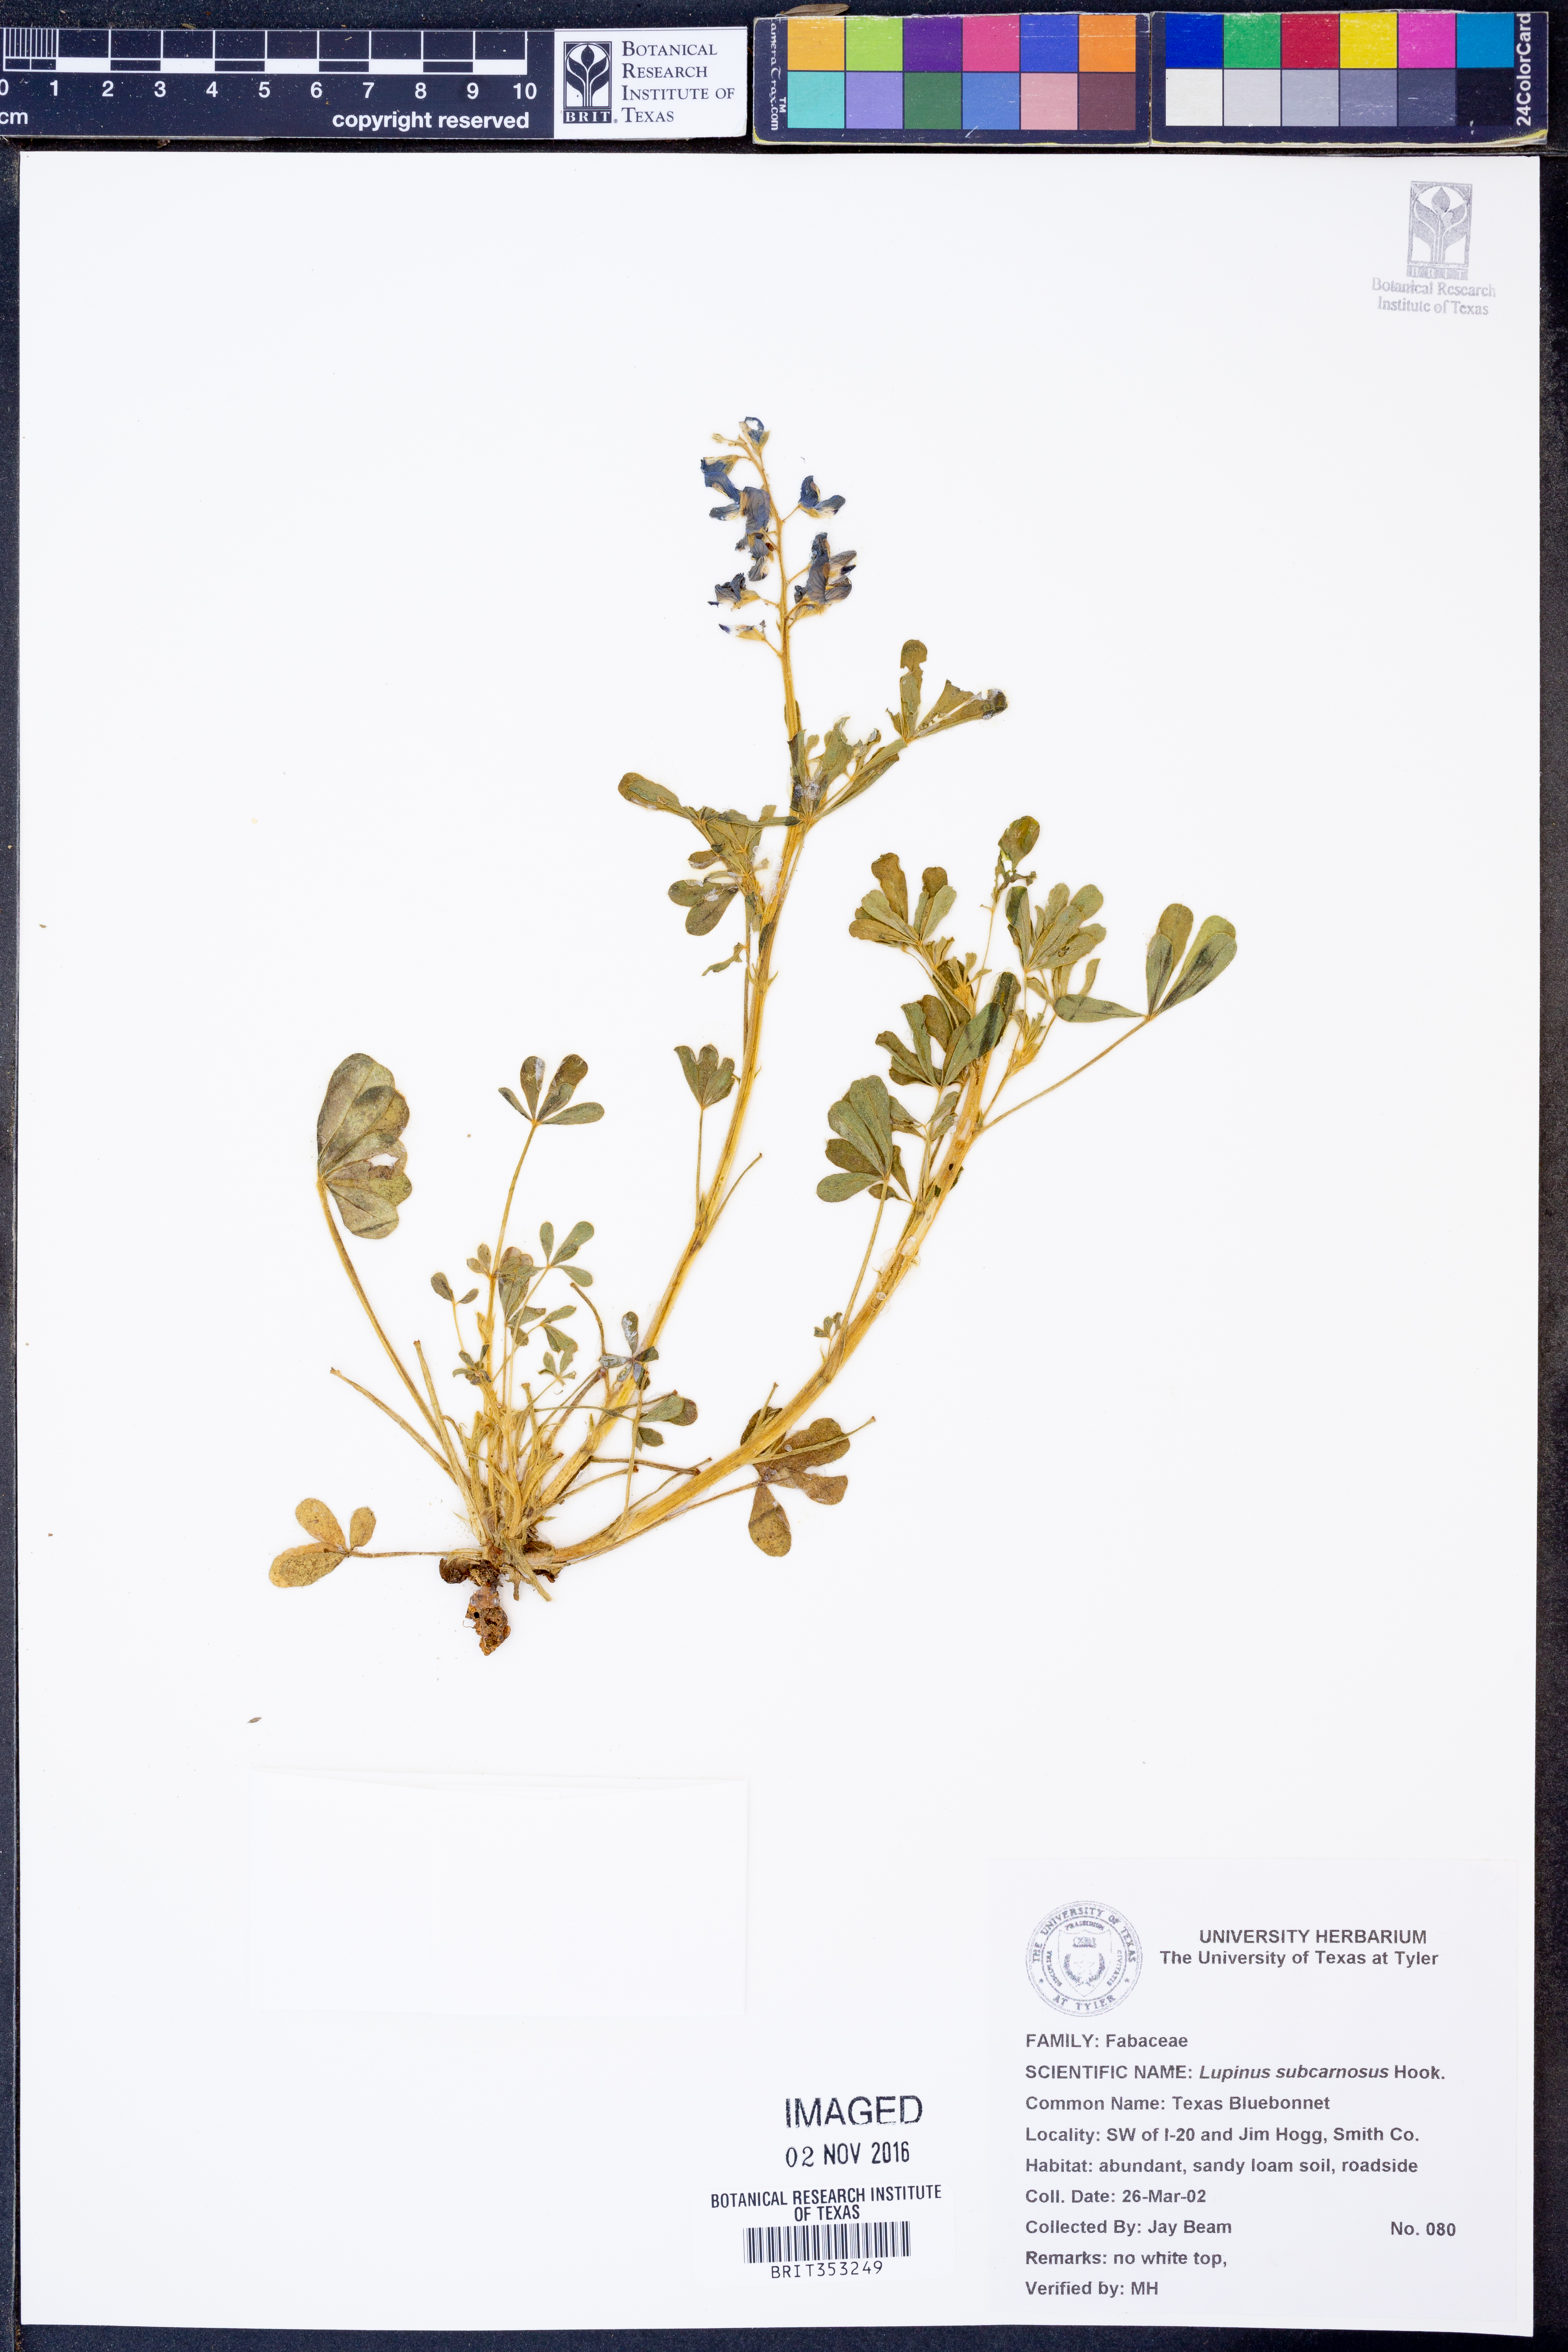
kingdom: Plantae
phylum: Tracheophyta
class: Magnoliopsida
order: Fabales
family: Fabaceae
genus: Lupinus
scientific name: Lupinus subcarnosus
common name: Texas bluebonnet
